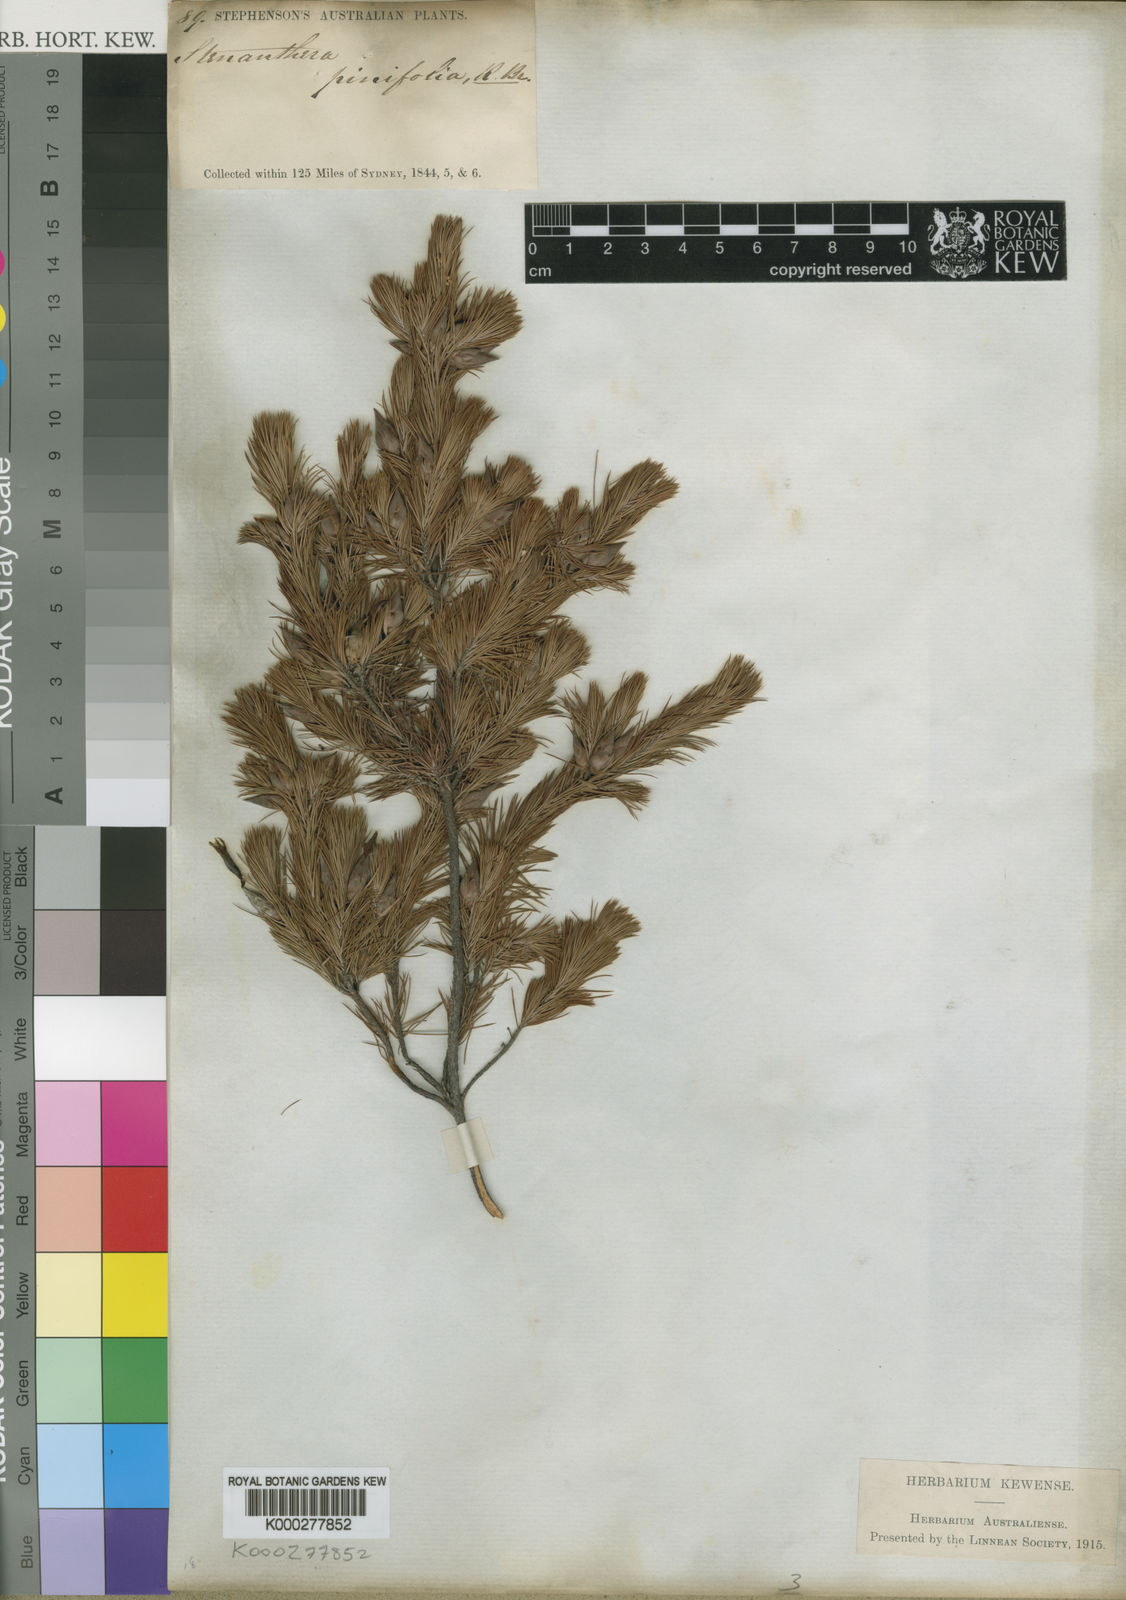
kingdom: Plantae
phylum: Tracheophyta
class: Magnoliopsida
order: Ericales
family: Ericaceae
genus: Stenanthera
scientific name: Stenanthera pinifolia
